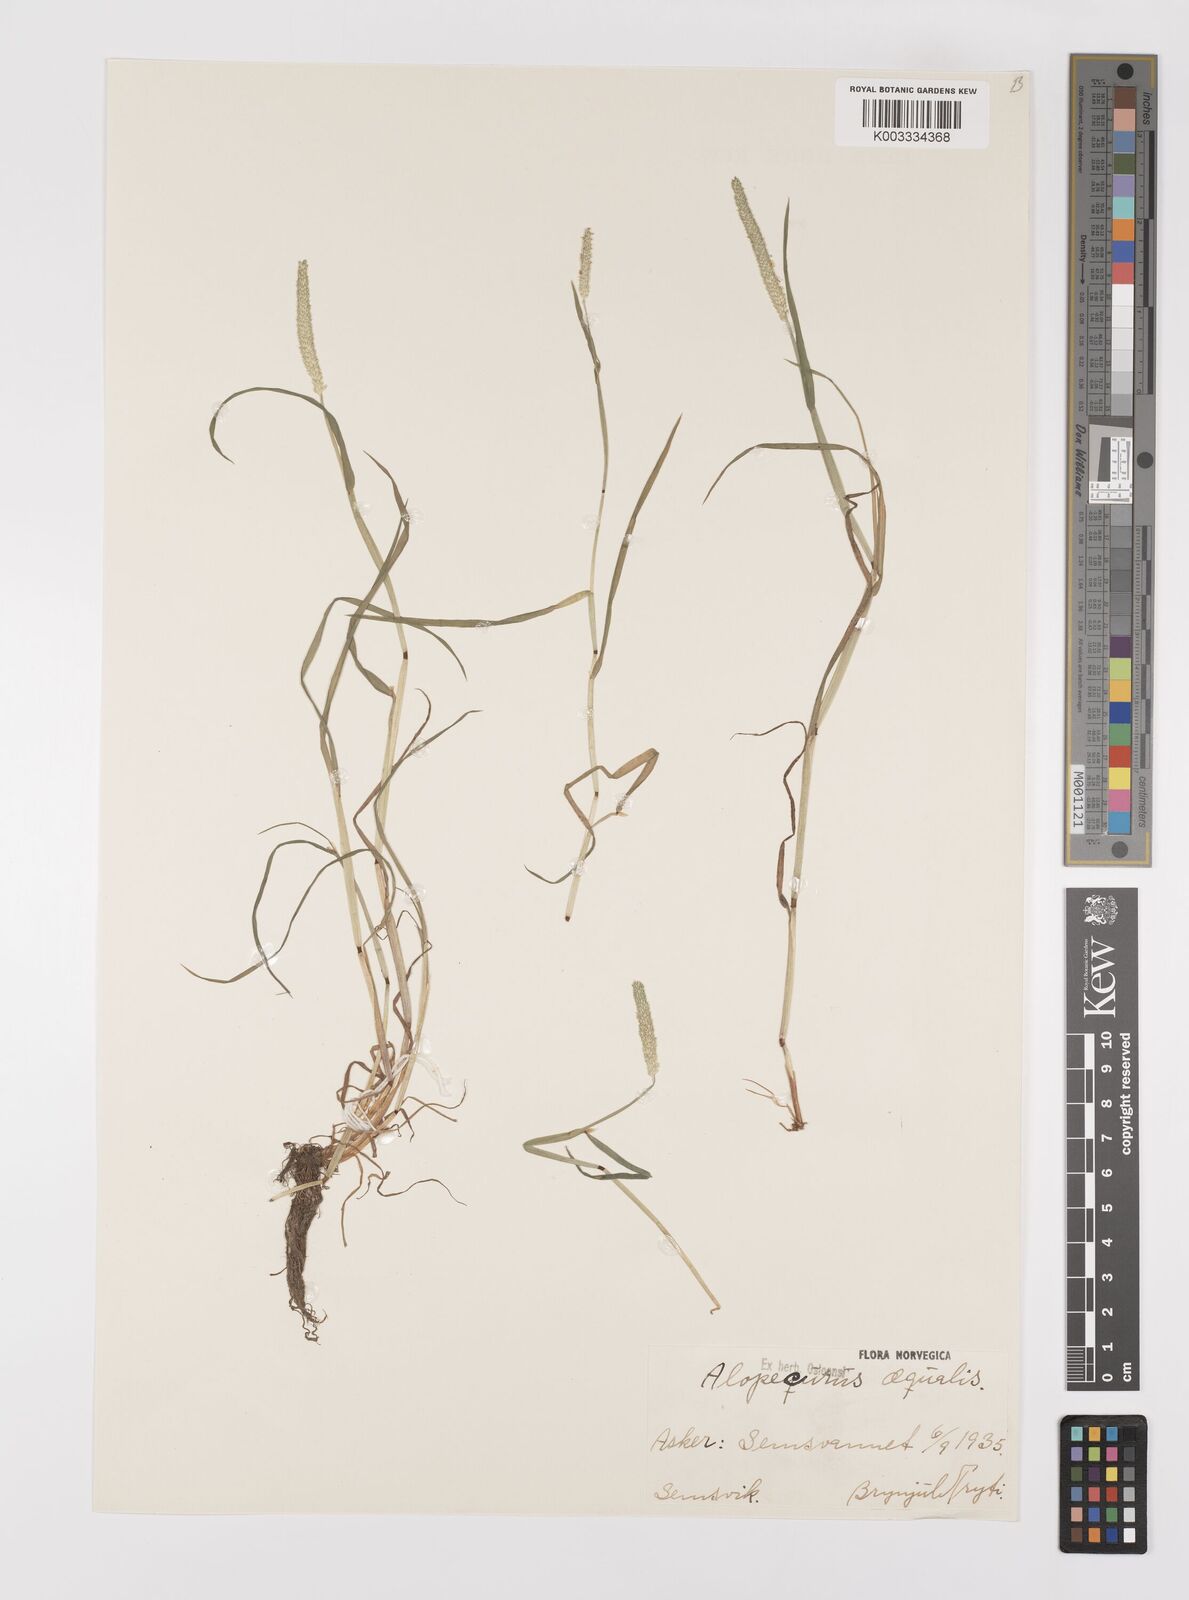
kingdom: Plantae
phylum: Tracheophyta
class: Liliopsida
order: Poales
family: Poaceae
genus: Alopecurus
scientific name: Alopecurus aequalis
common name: Orange foxtail
